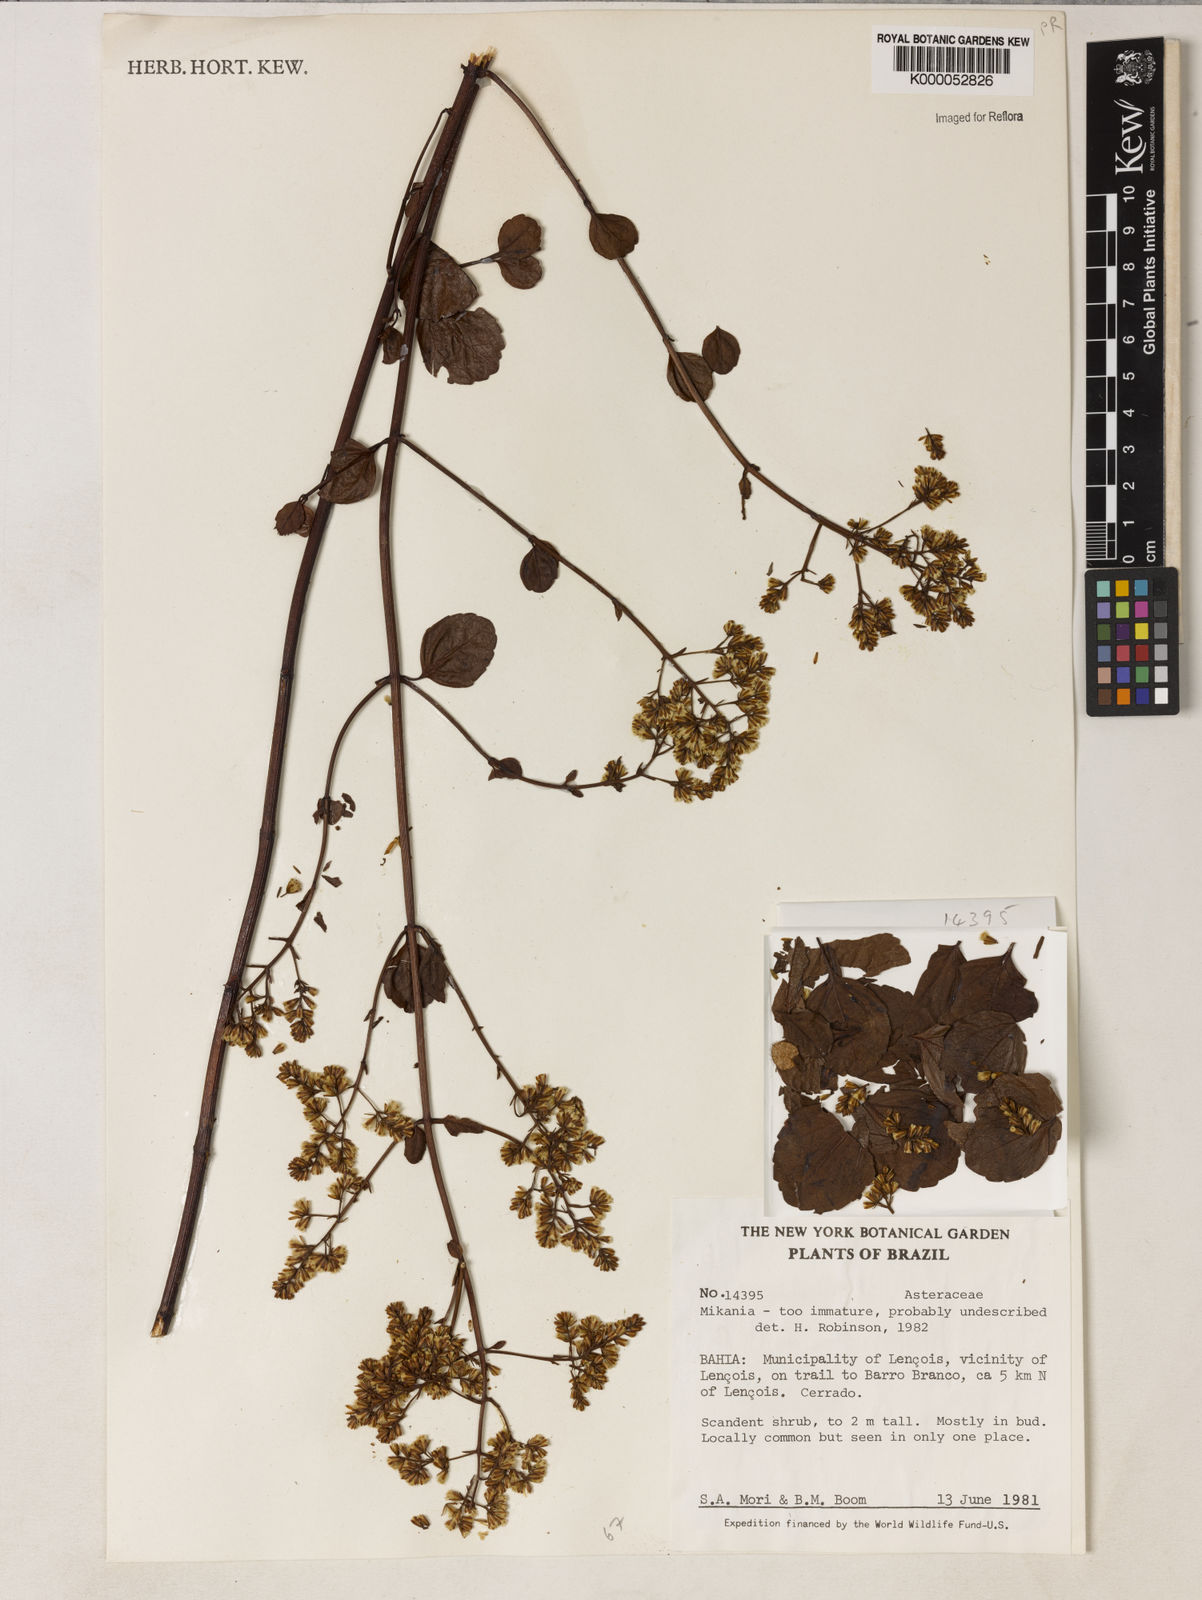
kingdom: Plantae
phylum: Tracheophyta
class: Magnoliopsida
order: Asterales
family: Asteraceae
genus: Mikania
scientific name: Mikania nelsonii
